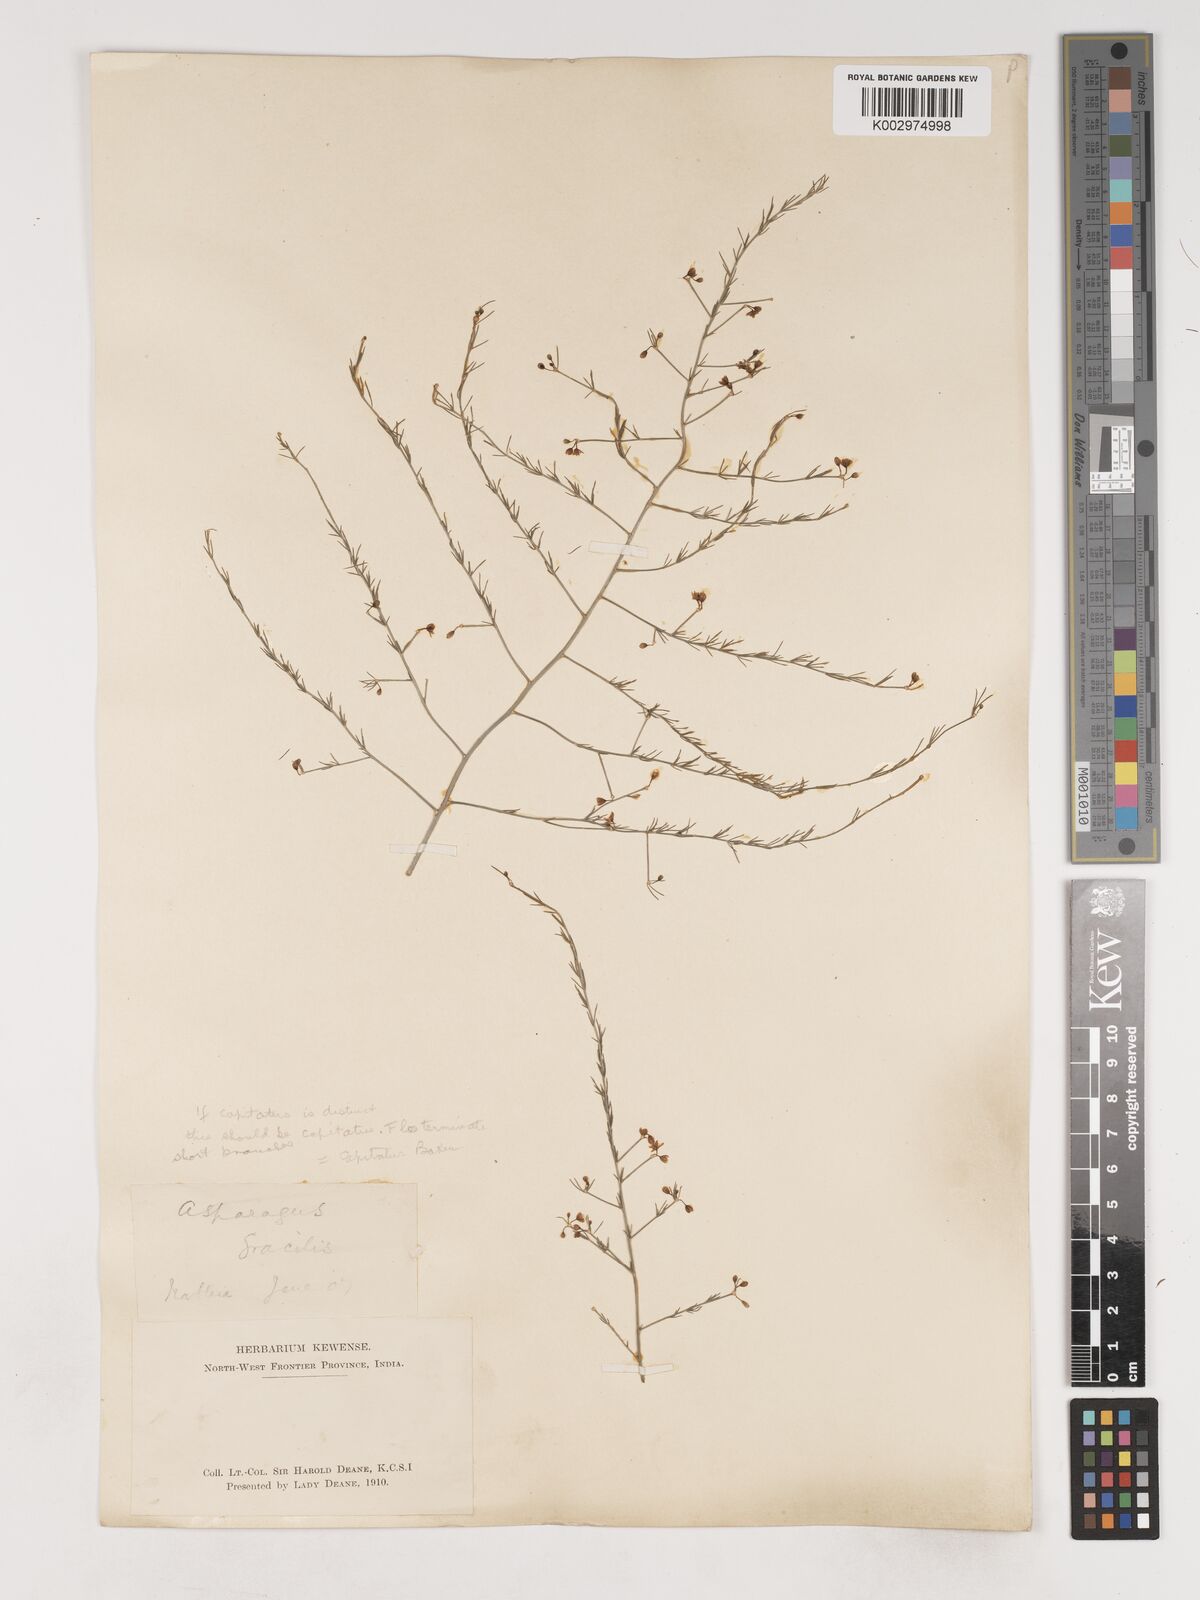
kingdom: Plantae
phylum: Tracheophyta
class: Liliopsida
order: Asparagales
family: Asparagaceae
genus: Asparagus
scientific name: Asparagus capitatus
